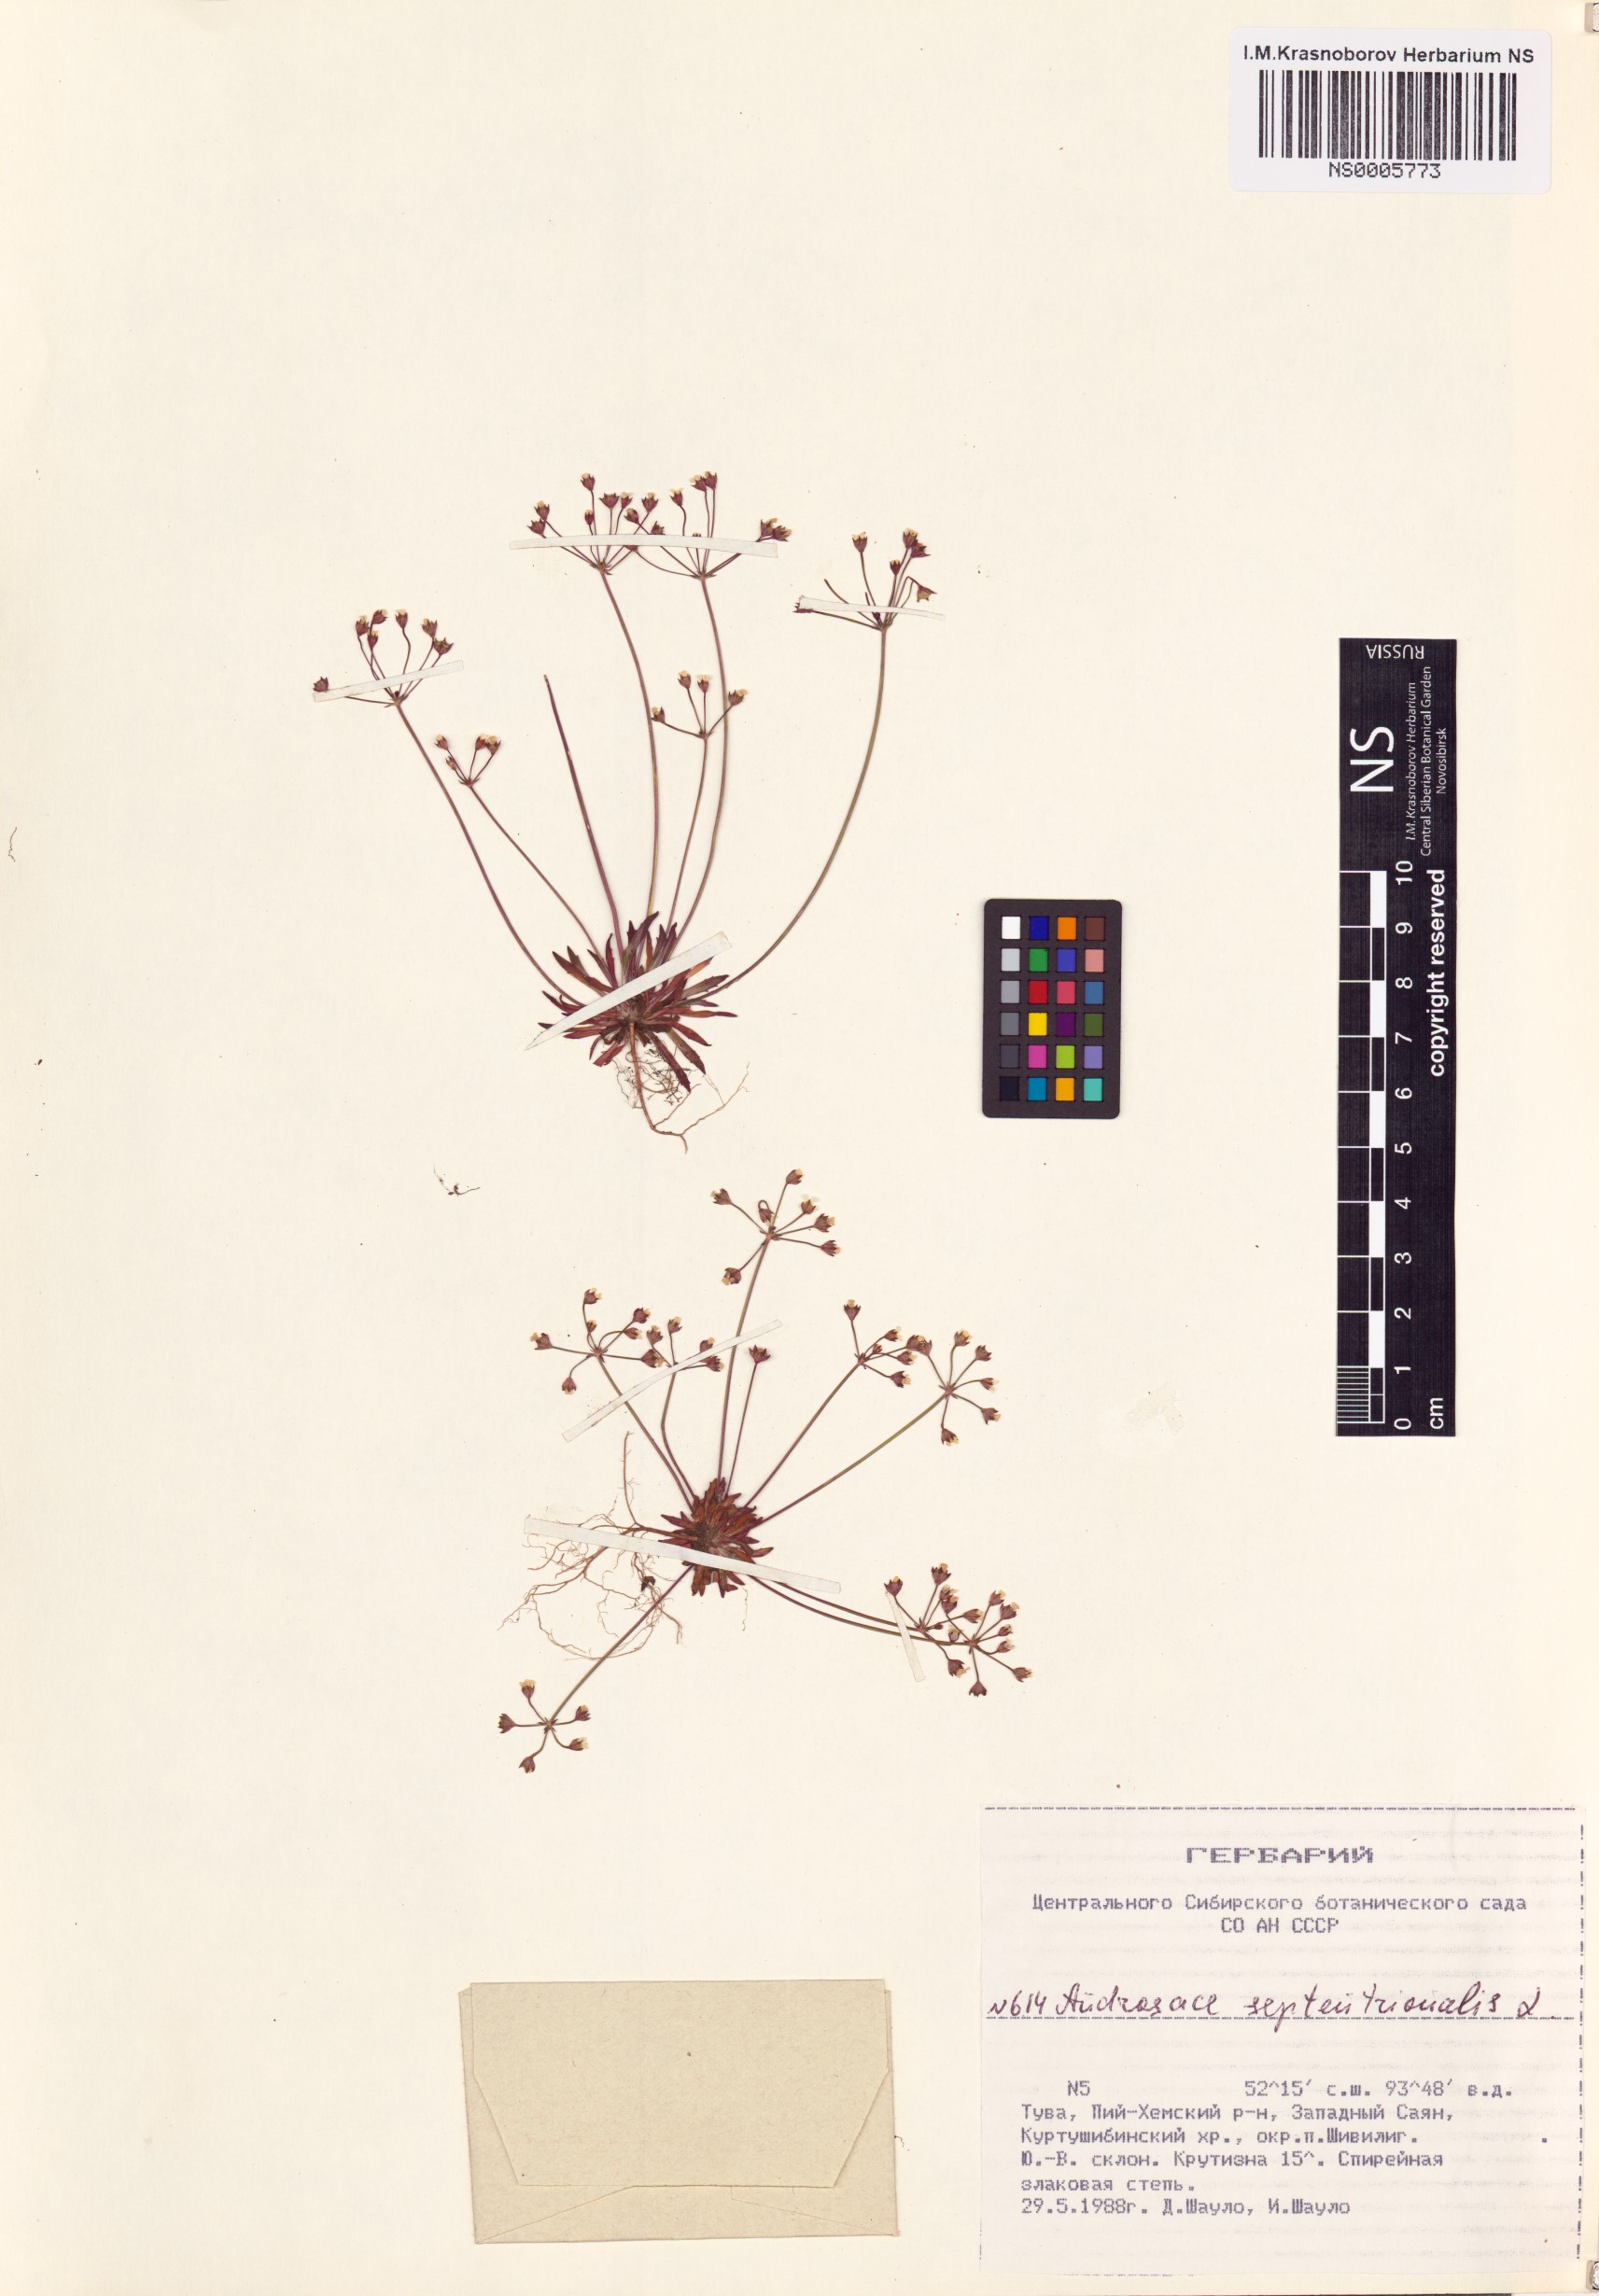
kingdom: Plantae
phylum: Tracheophyta
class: Magnoliopsida
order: Ericales
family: Primulaceae
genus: Androsace
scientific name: Androsace septentrionalis
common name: Hairy northern fairy-candelabra
